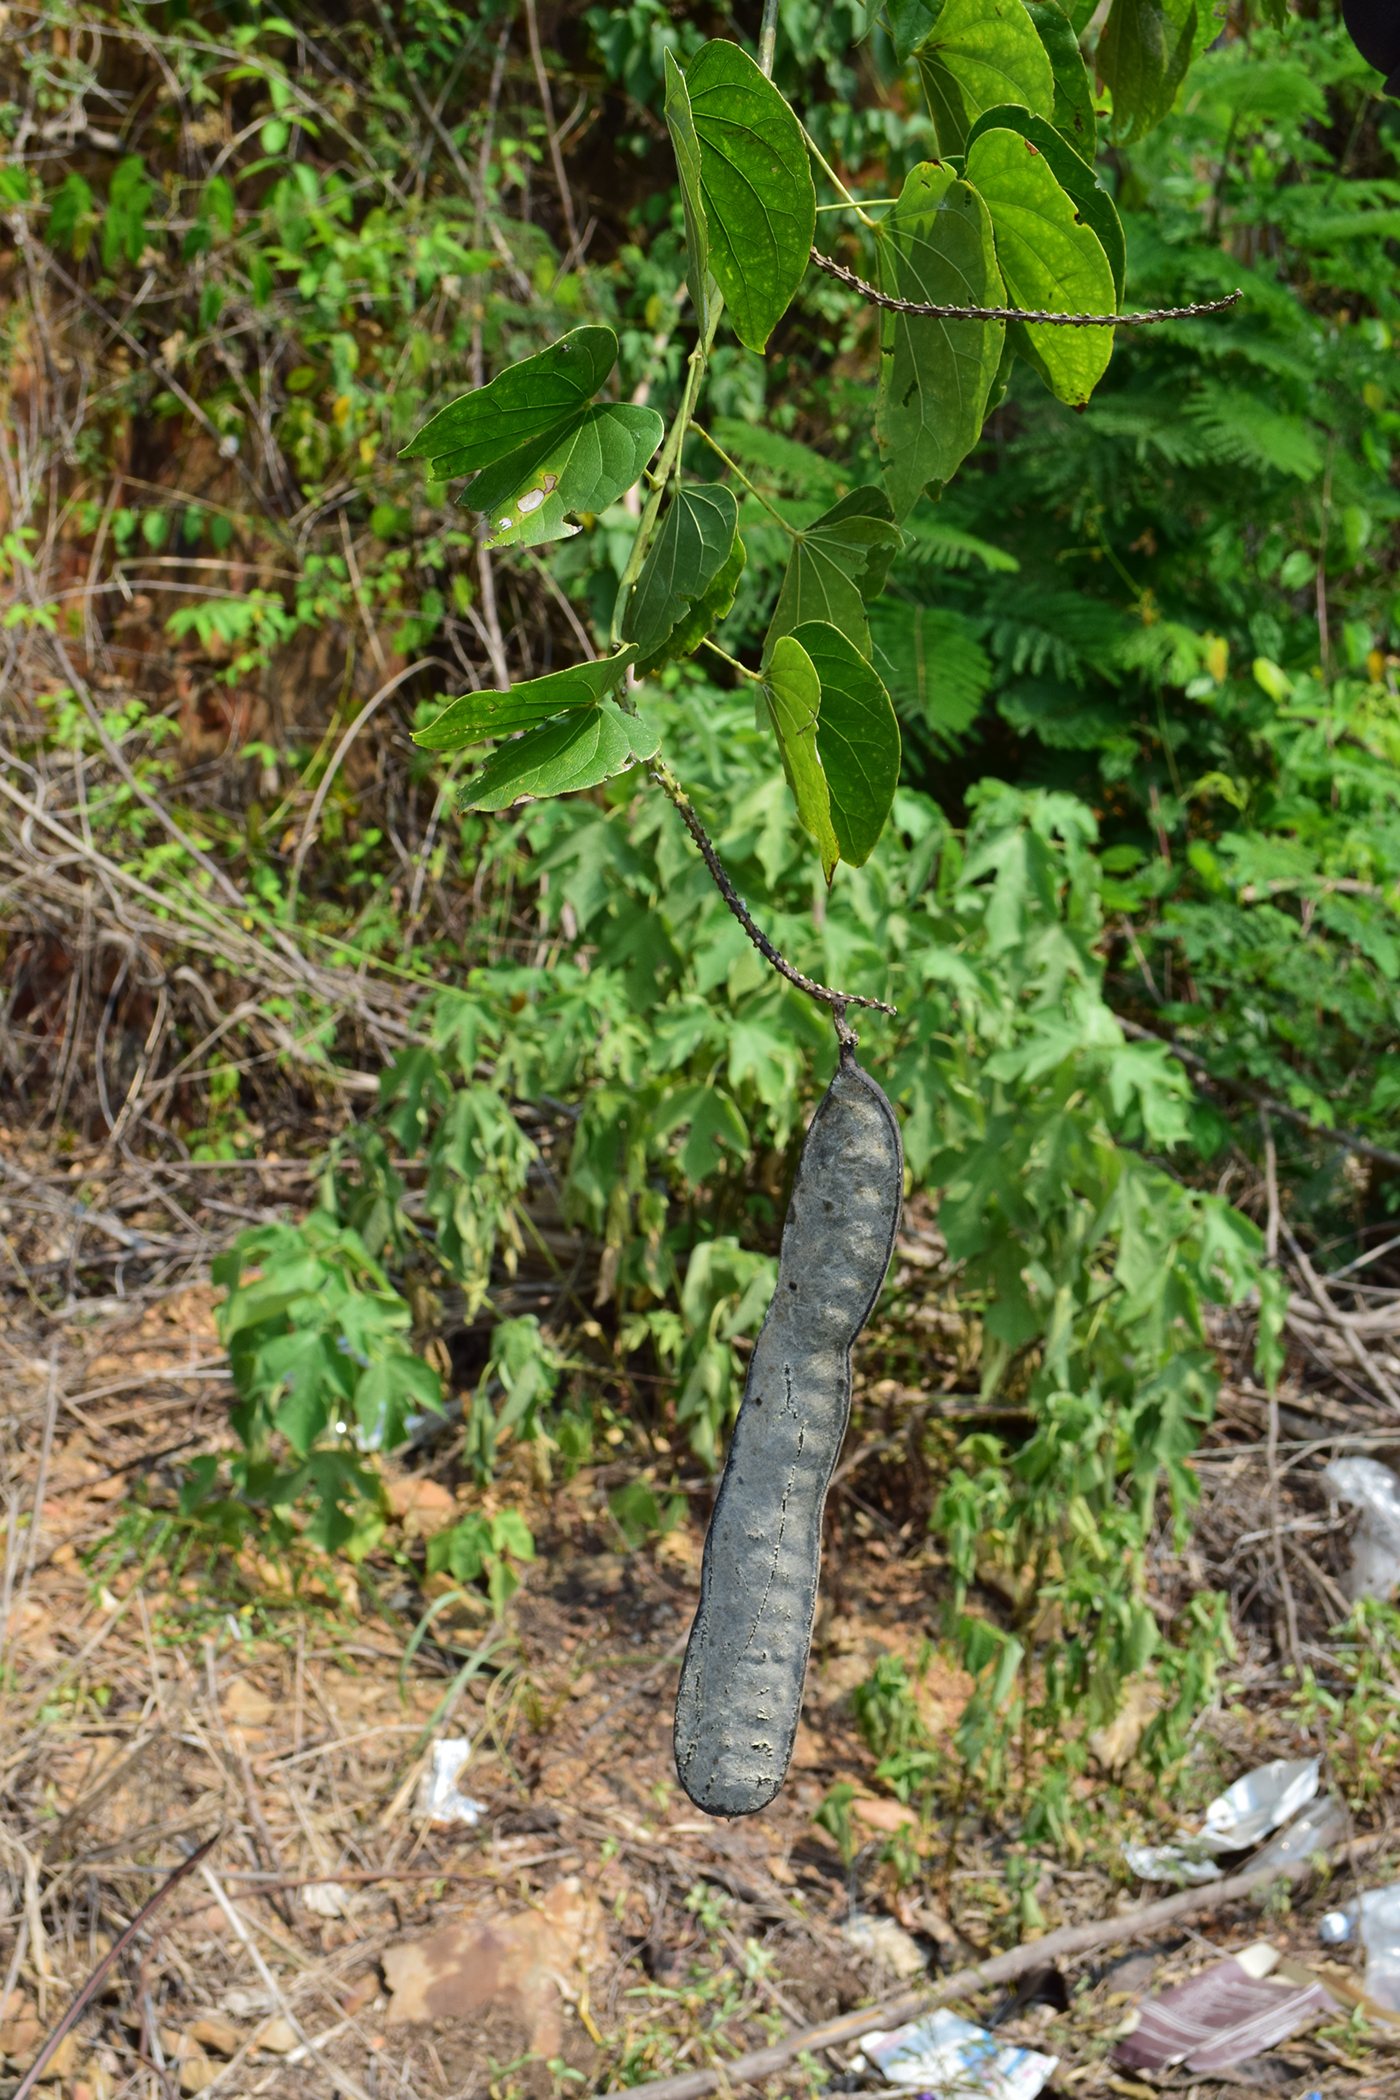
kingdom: Plantae
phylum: Tracheophyta
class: Magnoliopsida
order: Fabales
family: Fabaceae
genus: Bauhinia
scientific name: Bauhinia
